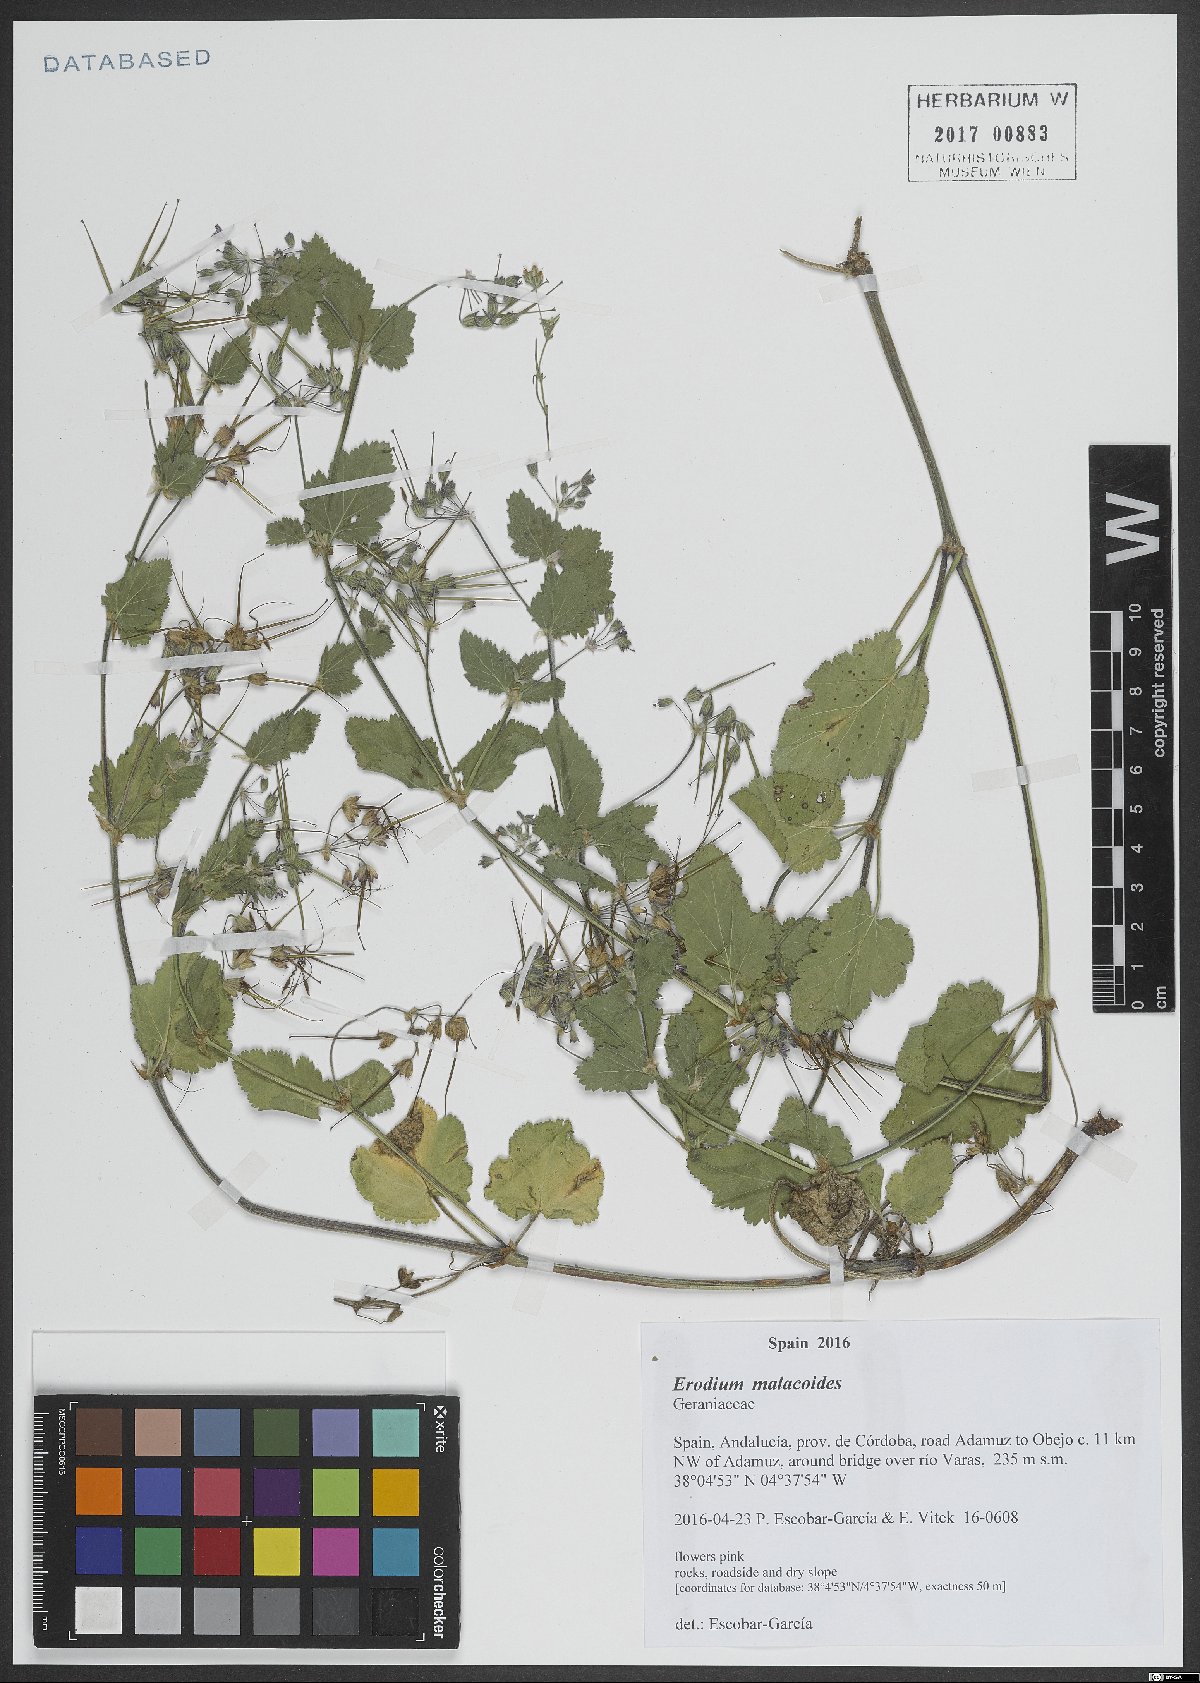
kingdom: Plantae
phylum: Tracheophyta
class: Magnoliopsida
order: Geraniales
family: Geraniaceae
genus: Erodium
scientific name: Erodium malacoides
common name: Soft stork's-bill
